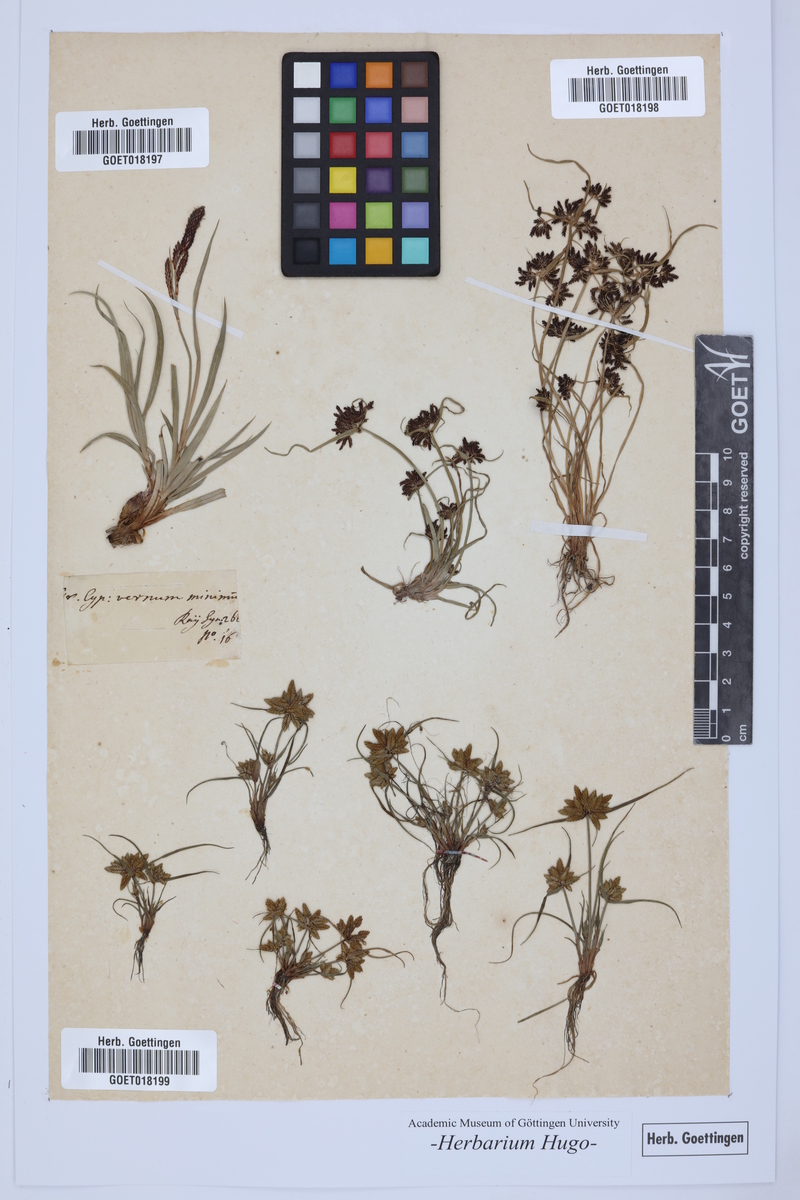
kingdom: Plantae
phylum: Tracheophyta
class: Liliopsida
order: Poales
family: Poaceae
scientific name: Poaceae
